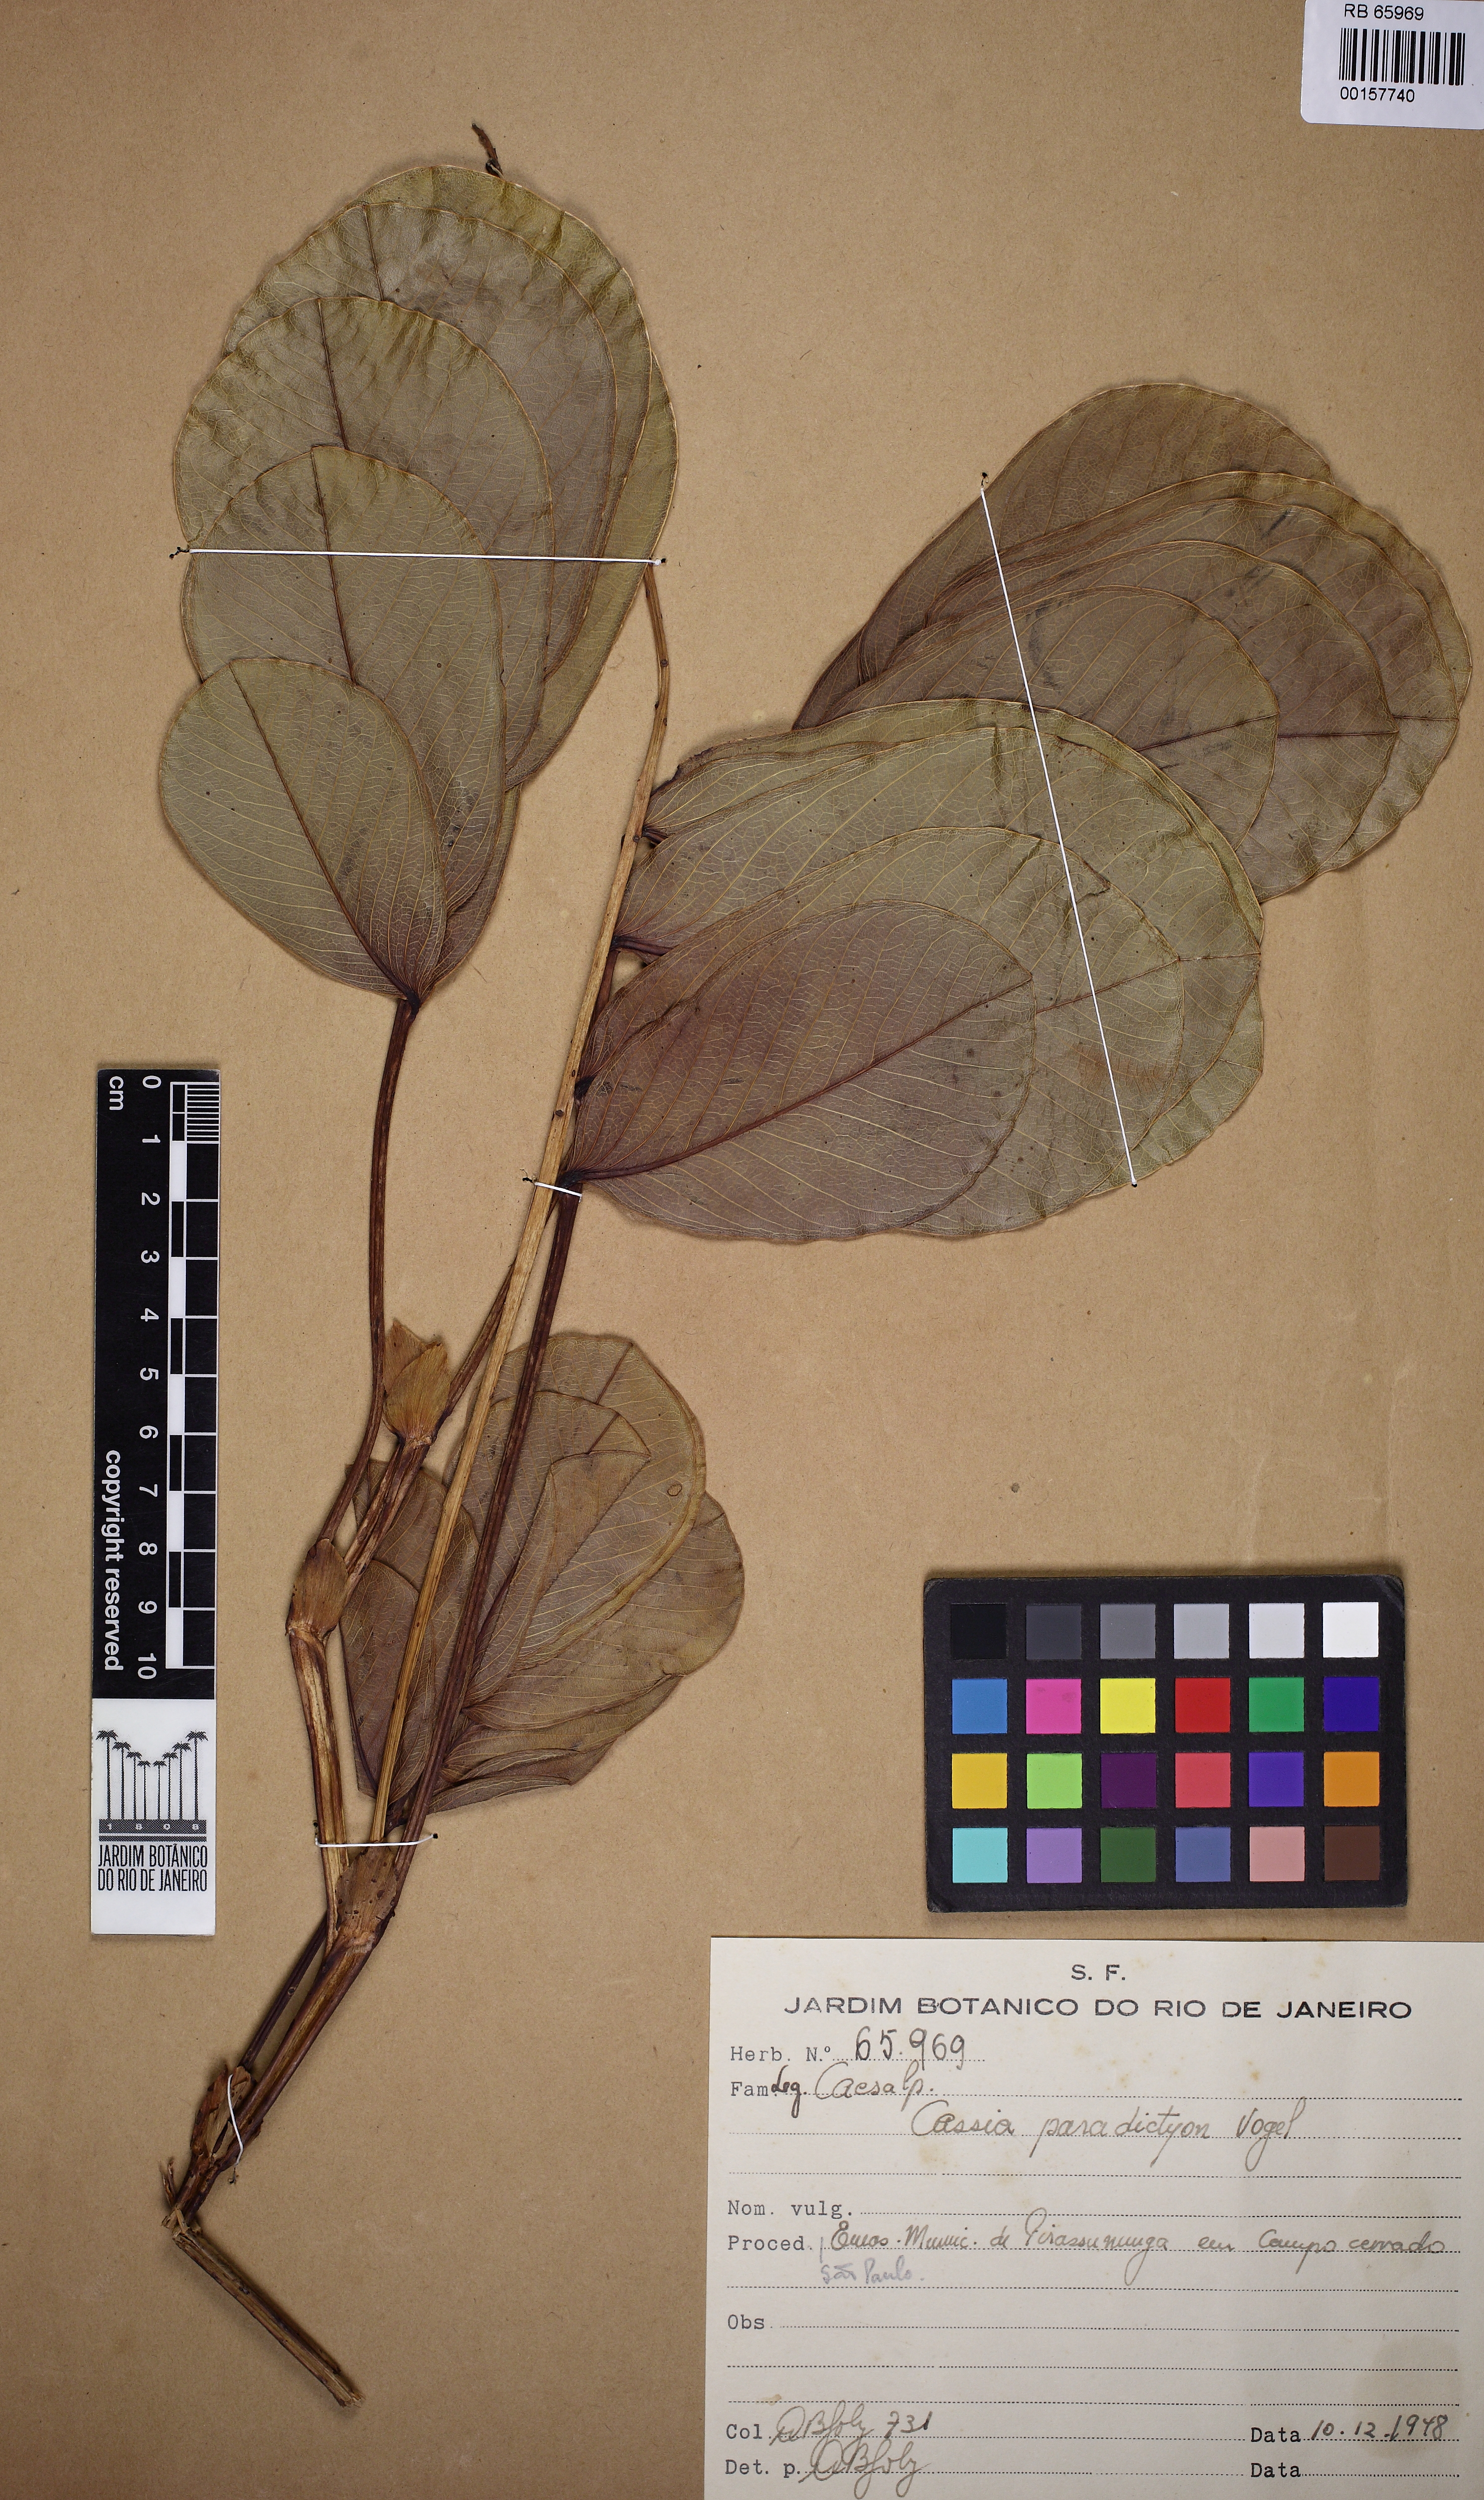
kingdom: Plantae
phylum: Tracheophyta
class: Magnoliopsida
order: Fabales
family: Fabaceae
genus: Senna
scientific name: Senna paradictyon
